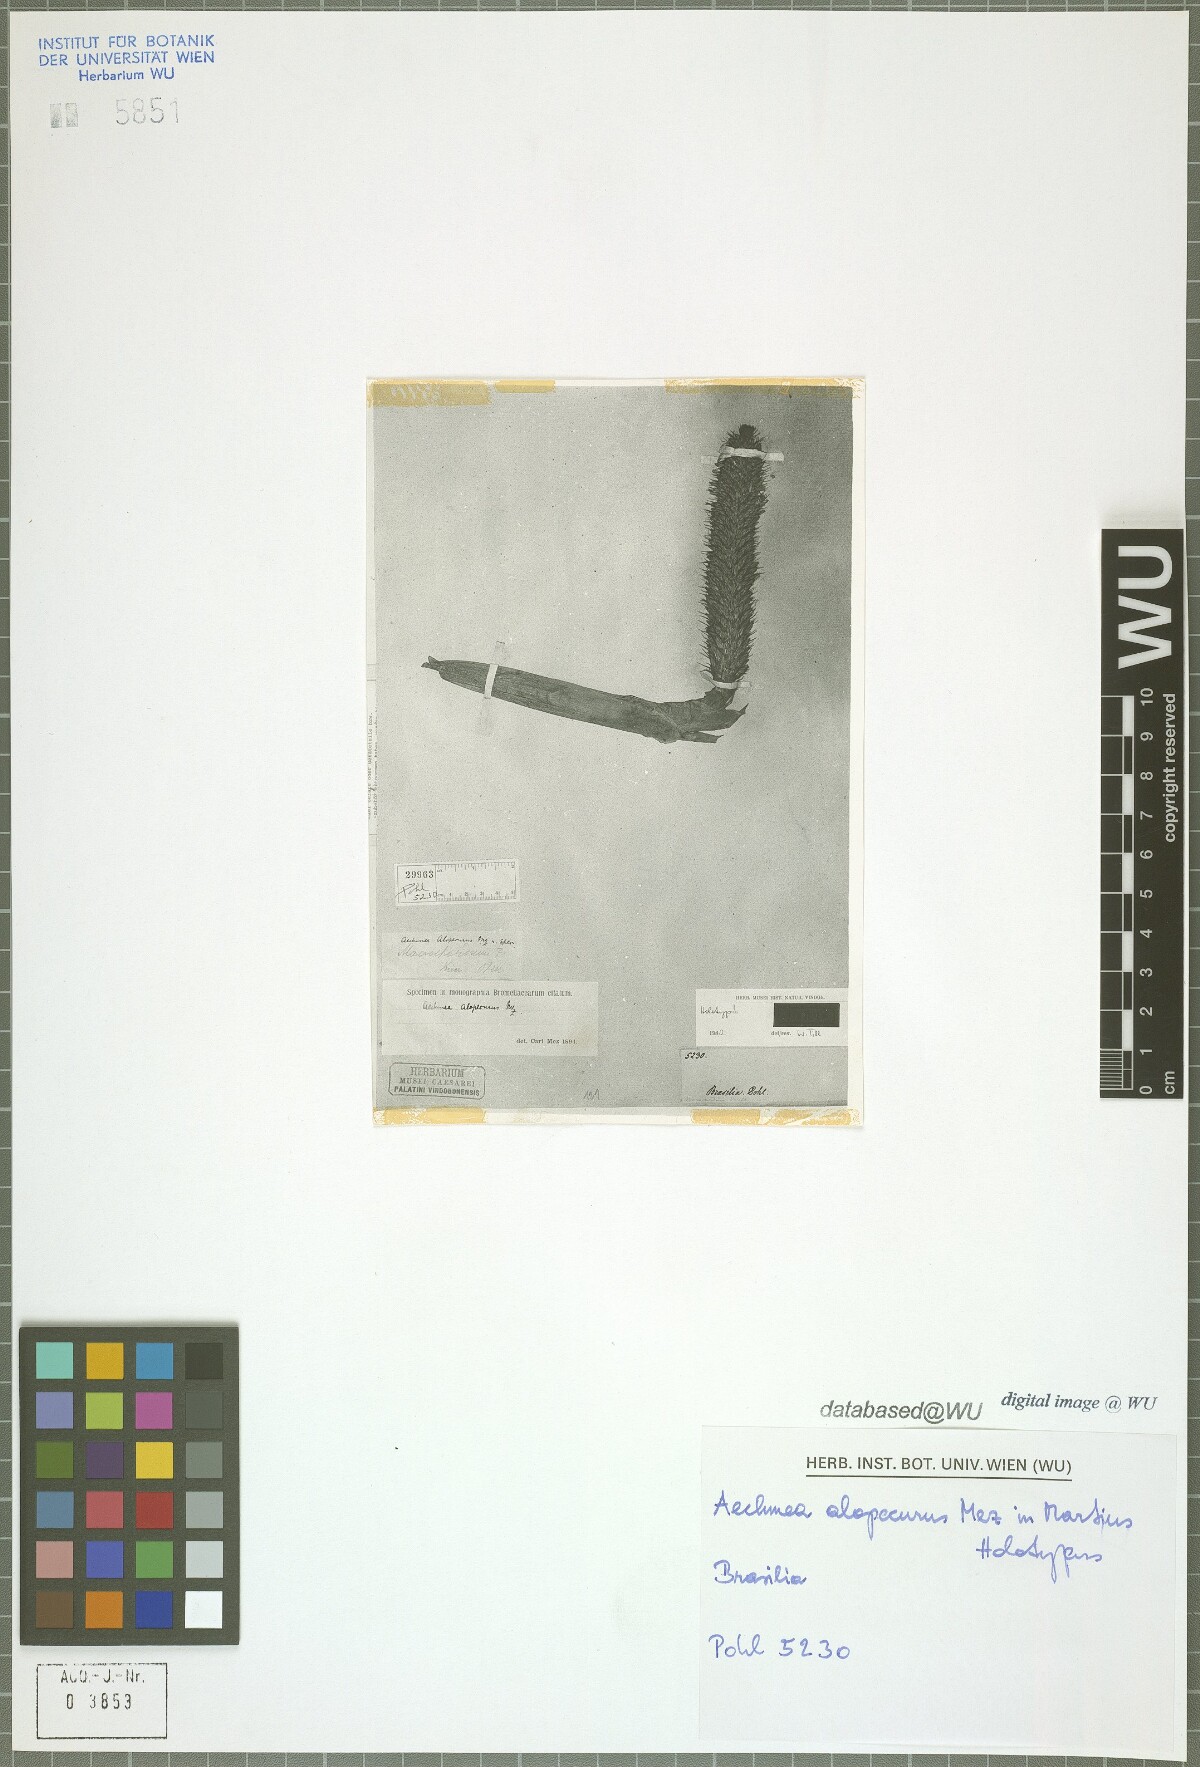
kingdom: Plantae
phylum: Tracheophyta
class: Liliopsida
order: Poales
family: Bromeliaceae
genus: Aechmea
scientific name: Aechmea alopecurus
